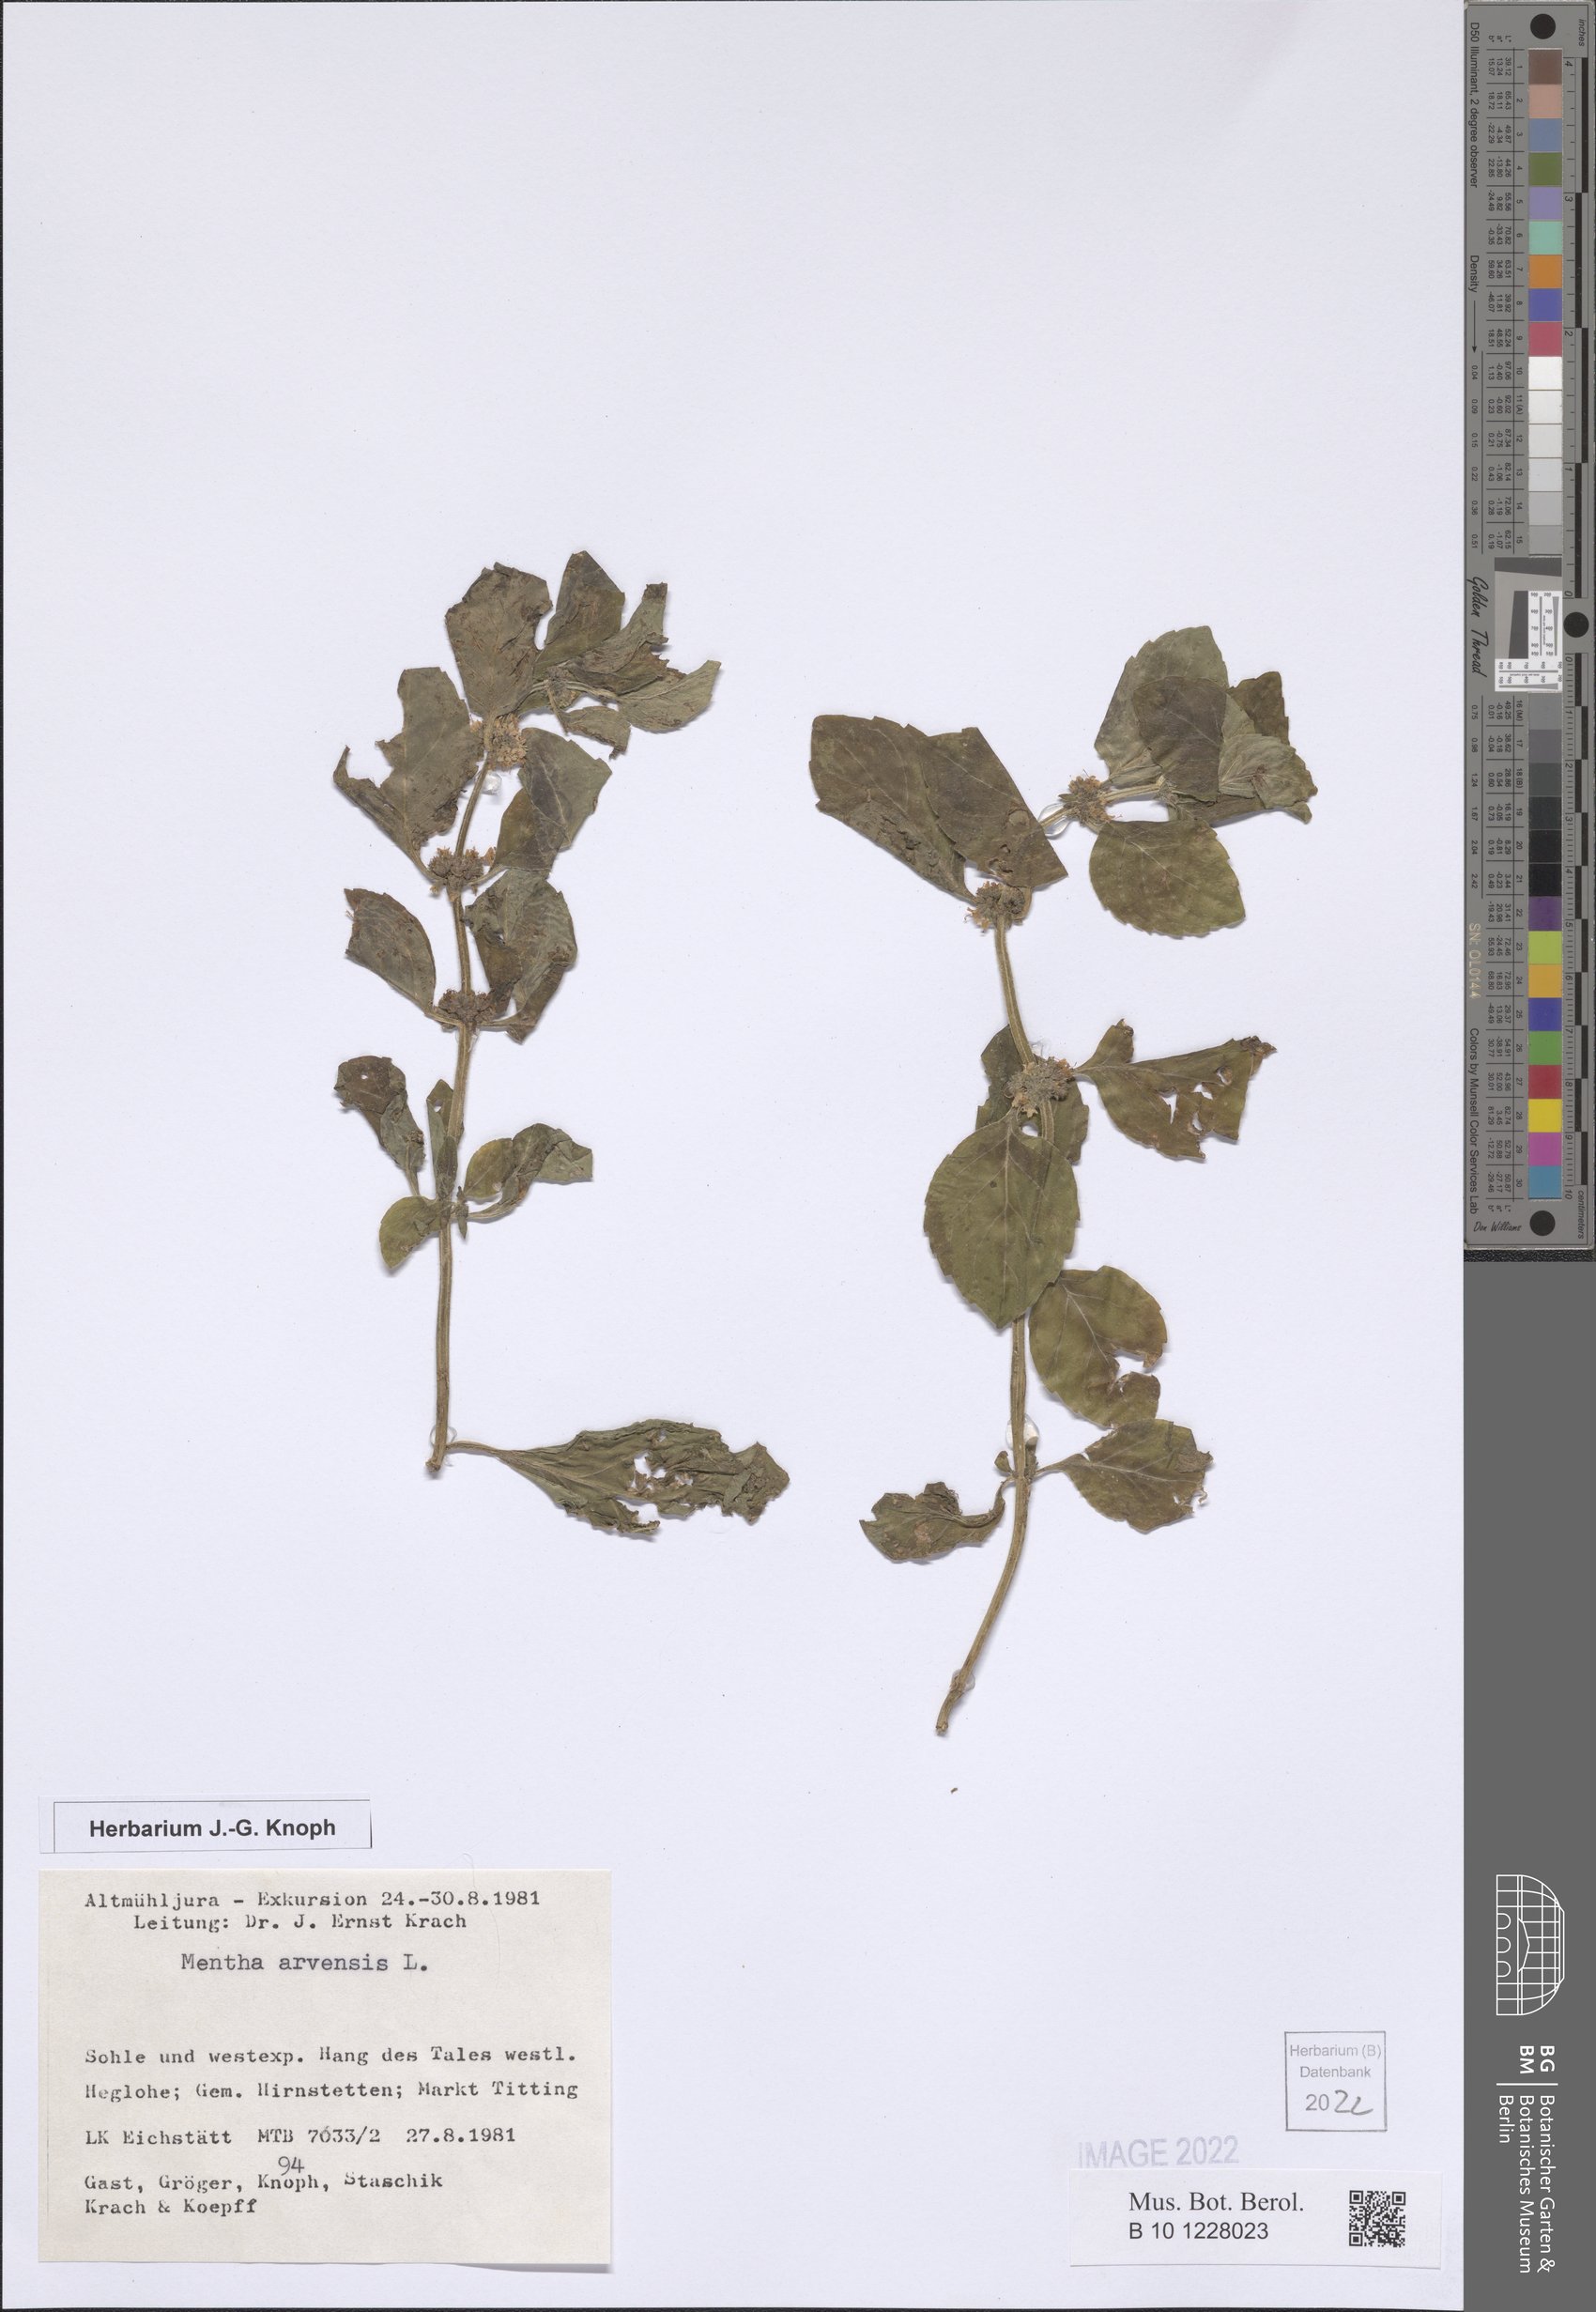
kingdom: Plantae
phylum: Tracheophyta
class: Magnoliopsida
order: Lamiales
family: Lamiaceae
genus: Mentha
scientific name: Mentha arvensis
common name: Corn mint
